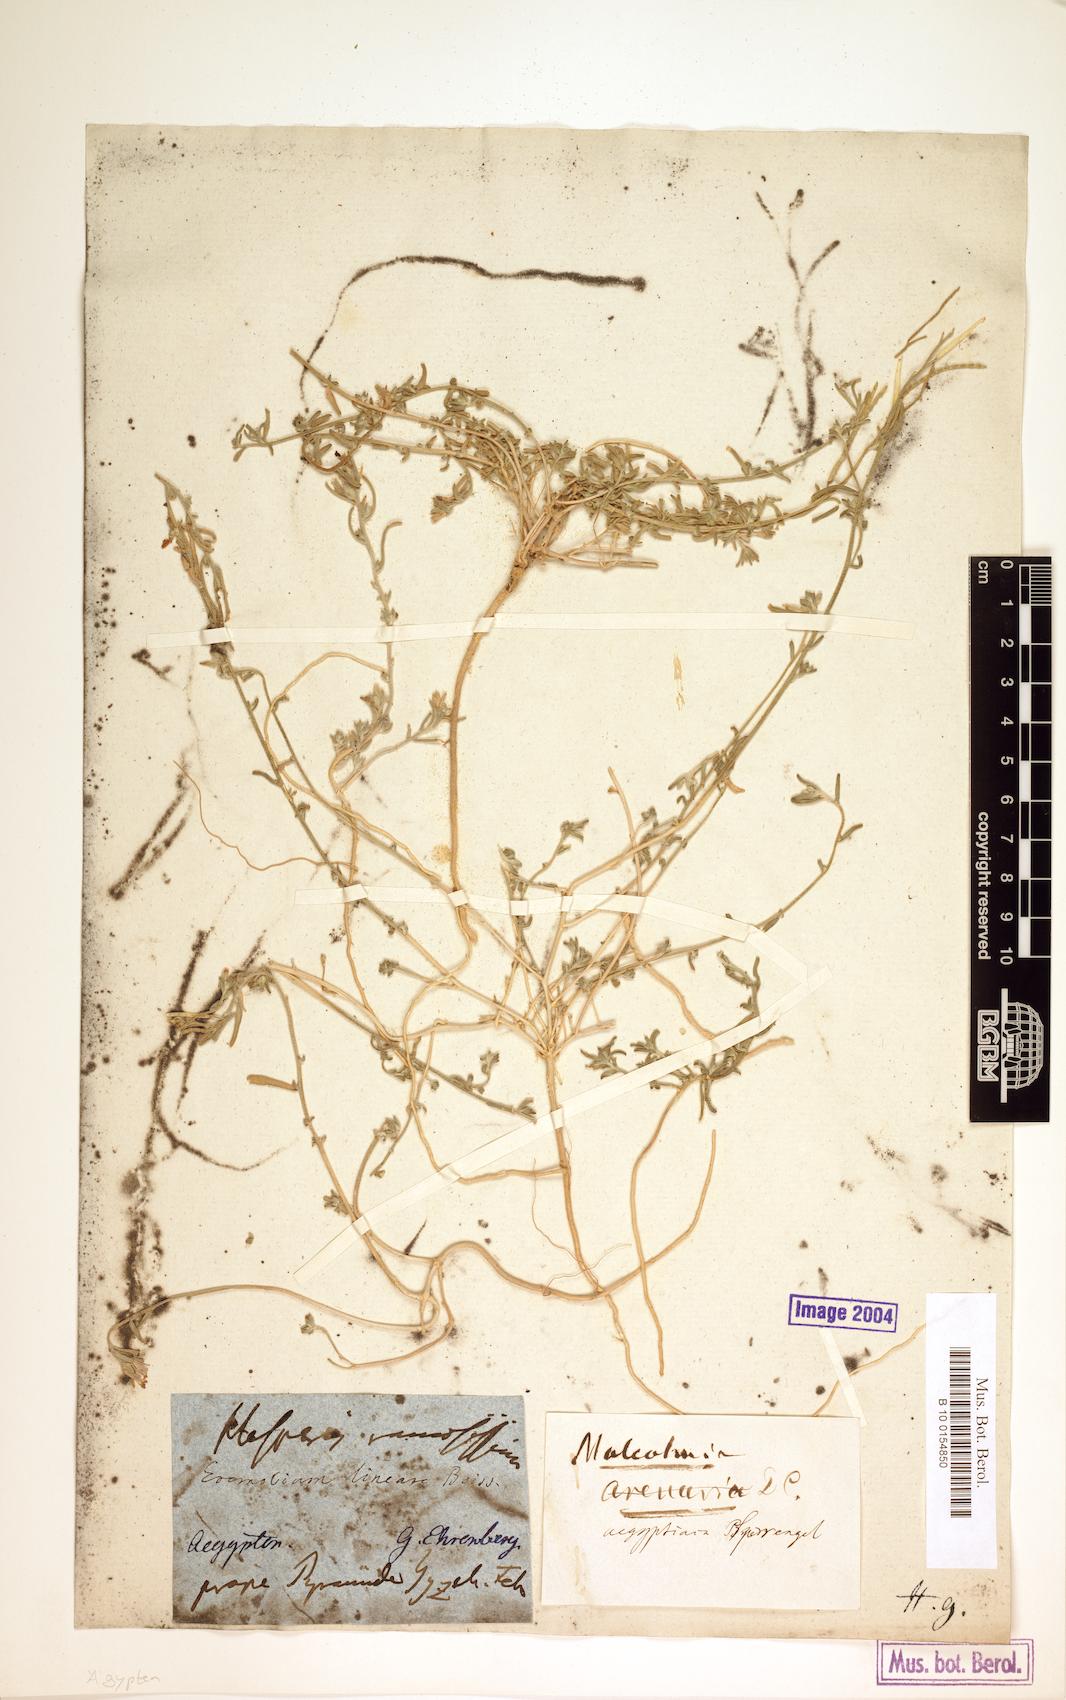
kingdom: Plantae
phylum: Tracheophyta
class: Magnoliopsida
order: Brassicales
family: Brassicaceae
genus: Eremobium
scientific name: Eremobium aegyptiacum
